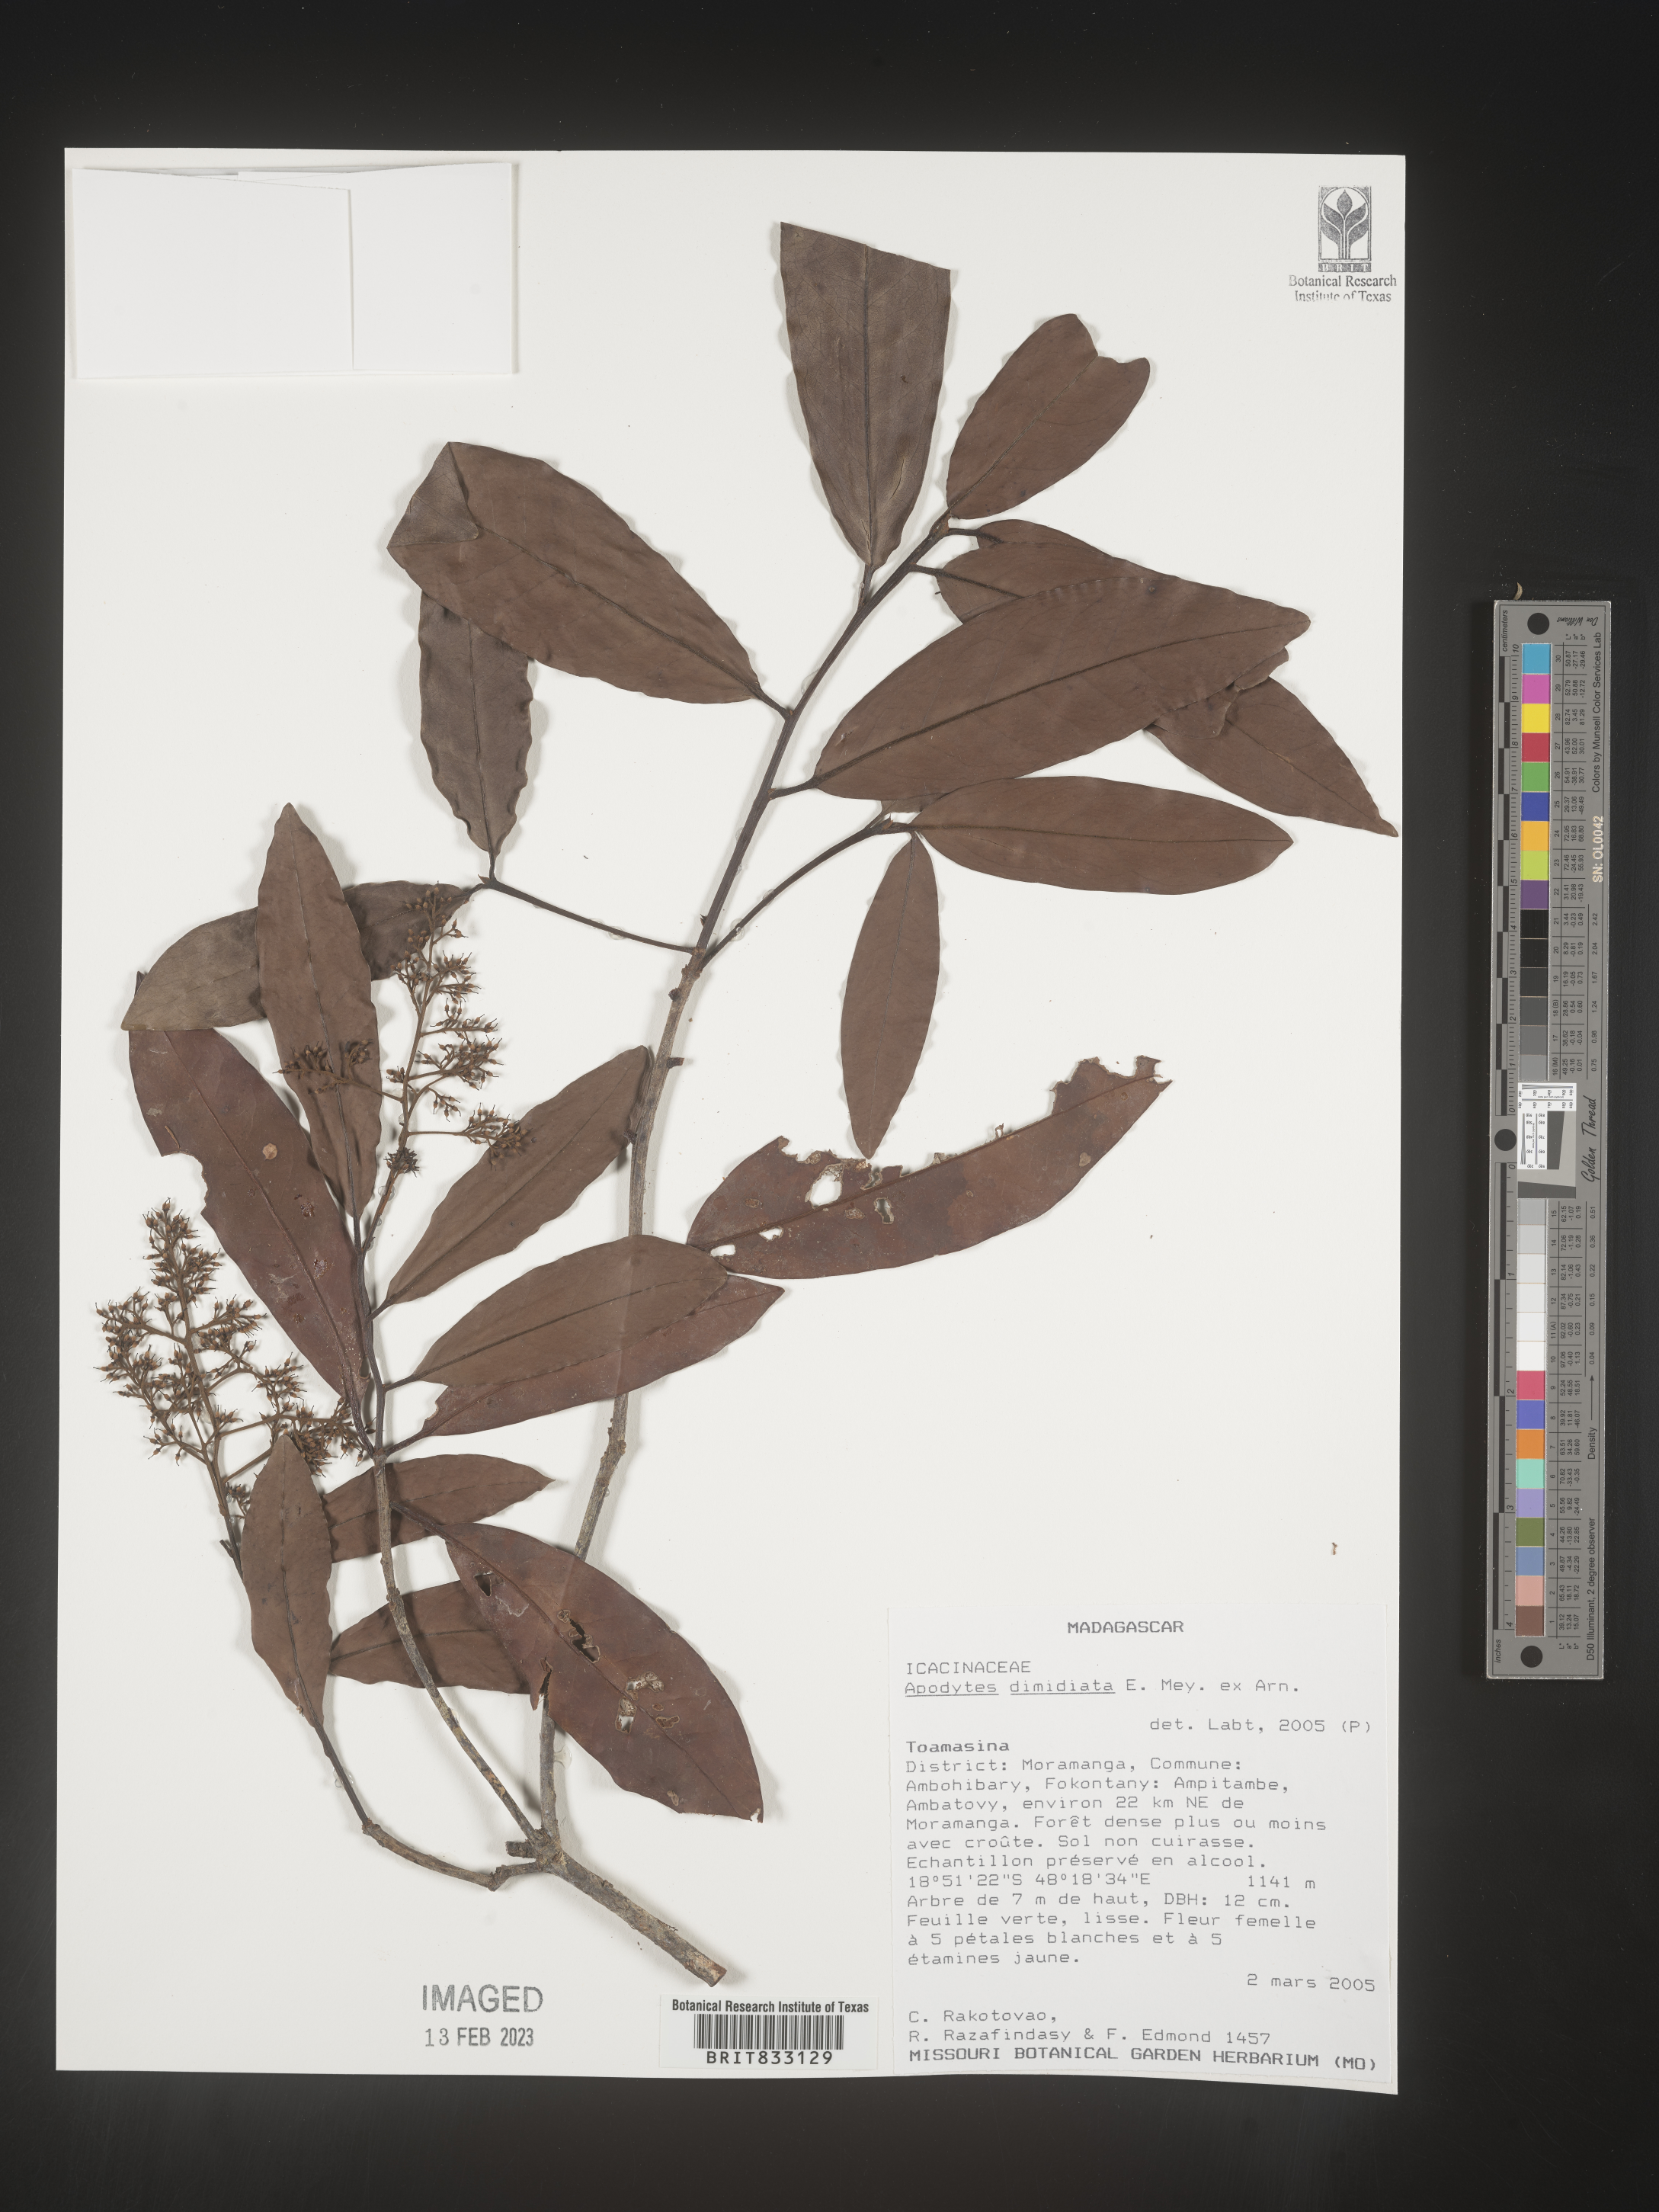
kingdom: Plantae
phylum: Tracheophyta
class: Magnoliopsida
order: Metteniusales
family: Metteniusaceae
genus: Apodytes
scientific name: Apodytes dimidiata
